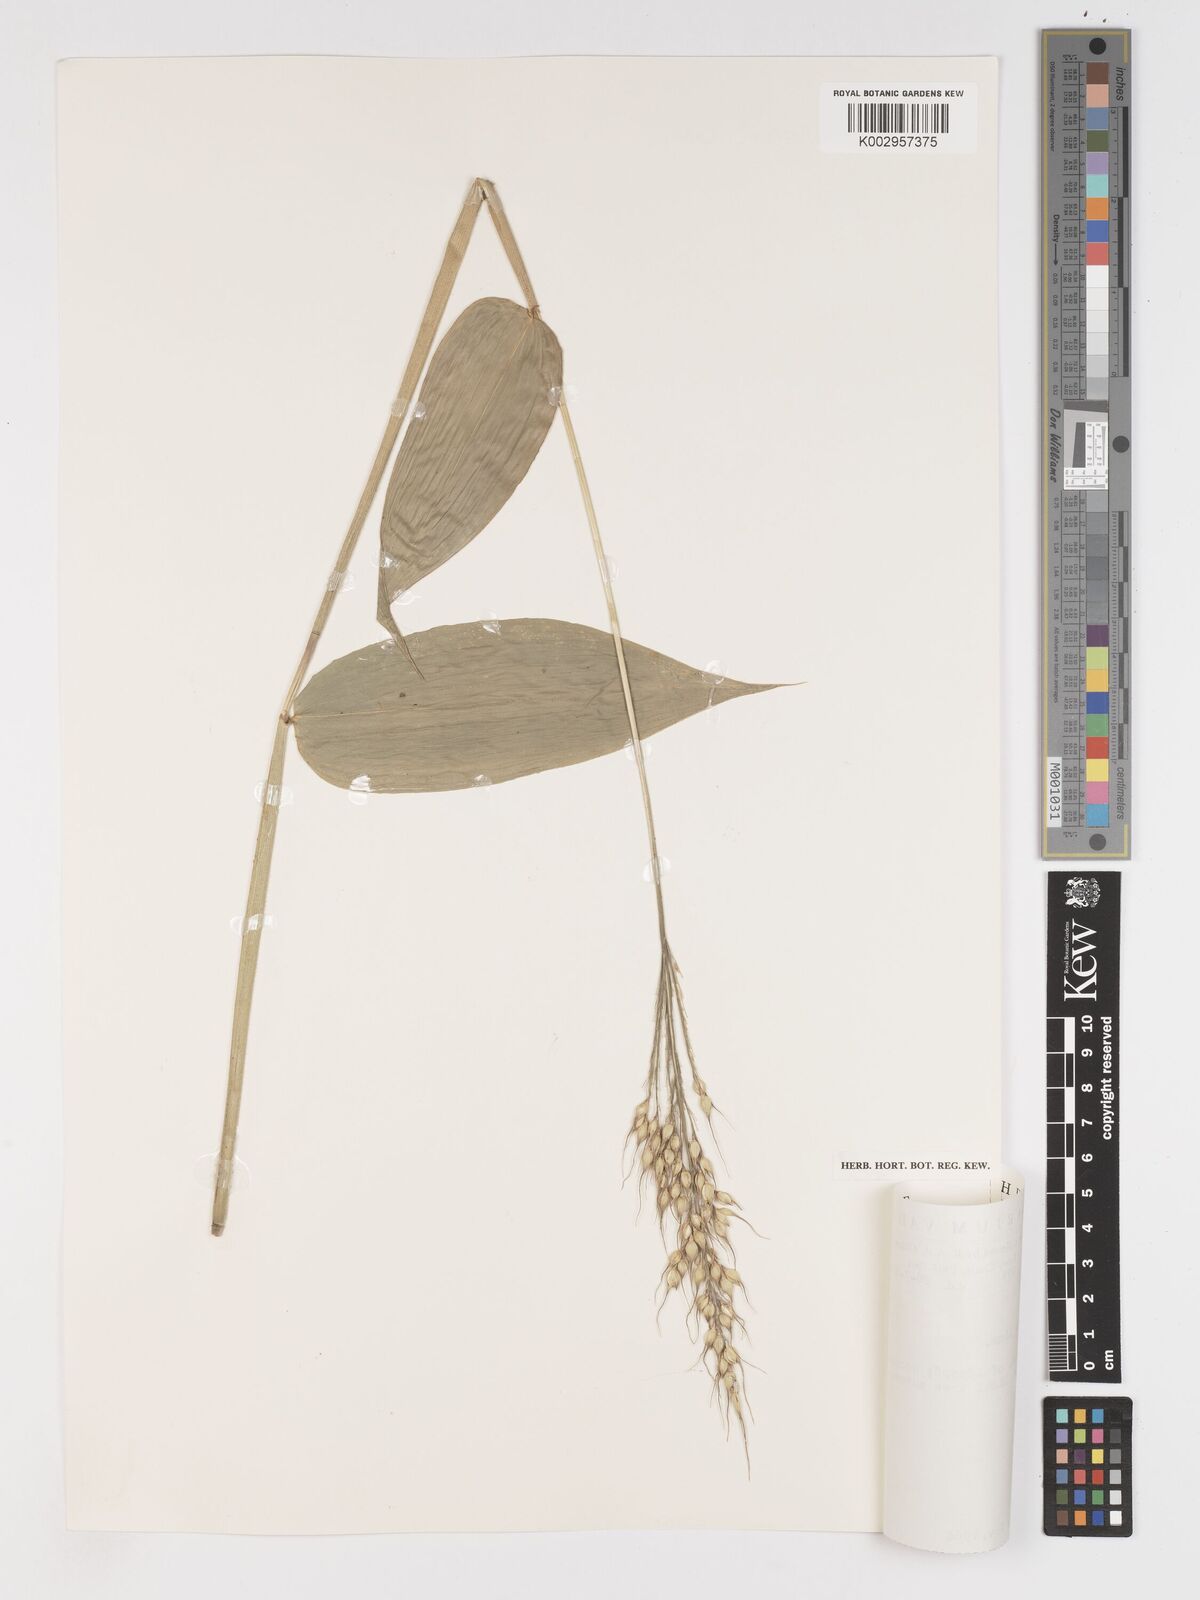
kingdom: Plantae
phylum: Tracheophyta
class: Liliopsida
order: Poales
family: Poaceae
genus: Olyra
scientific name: Olyra latifolia
